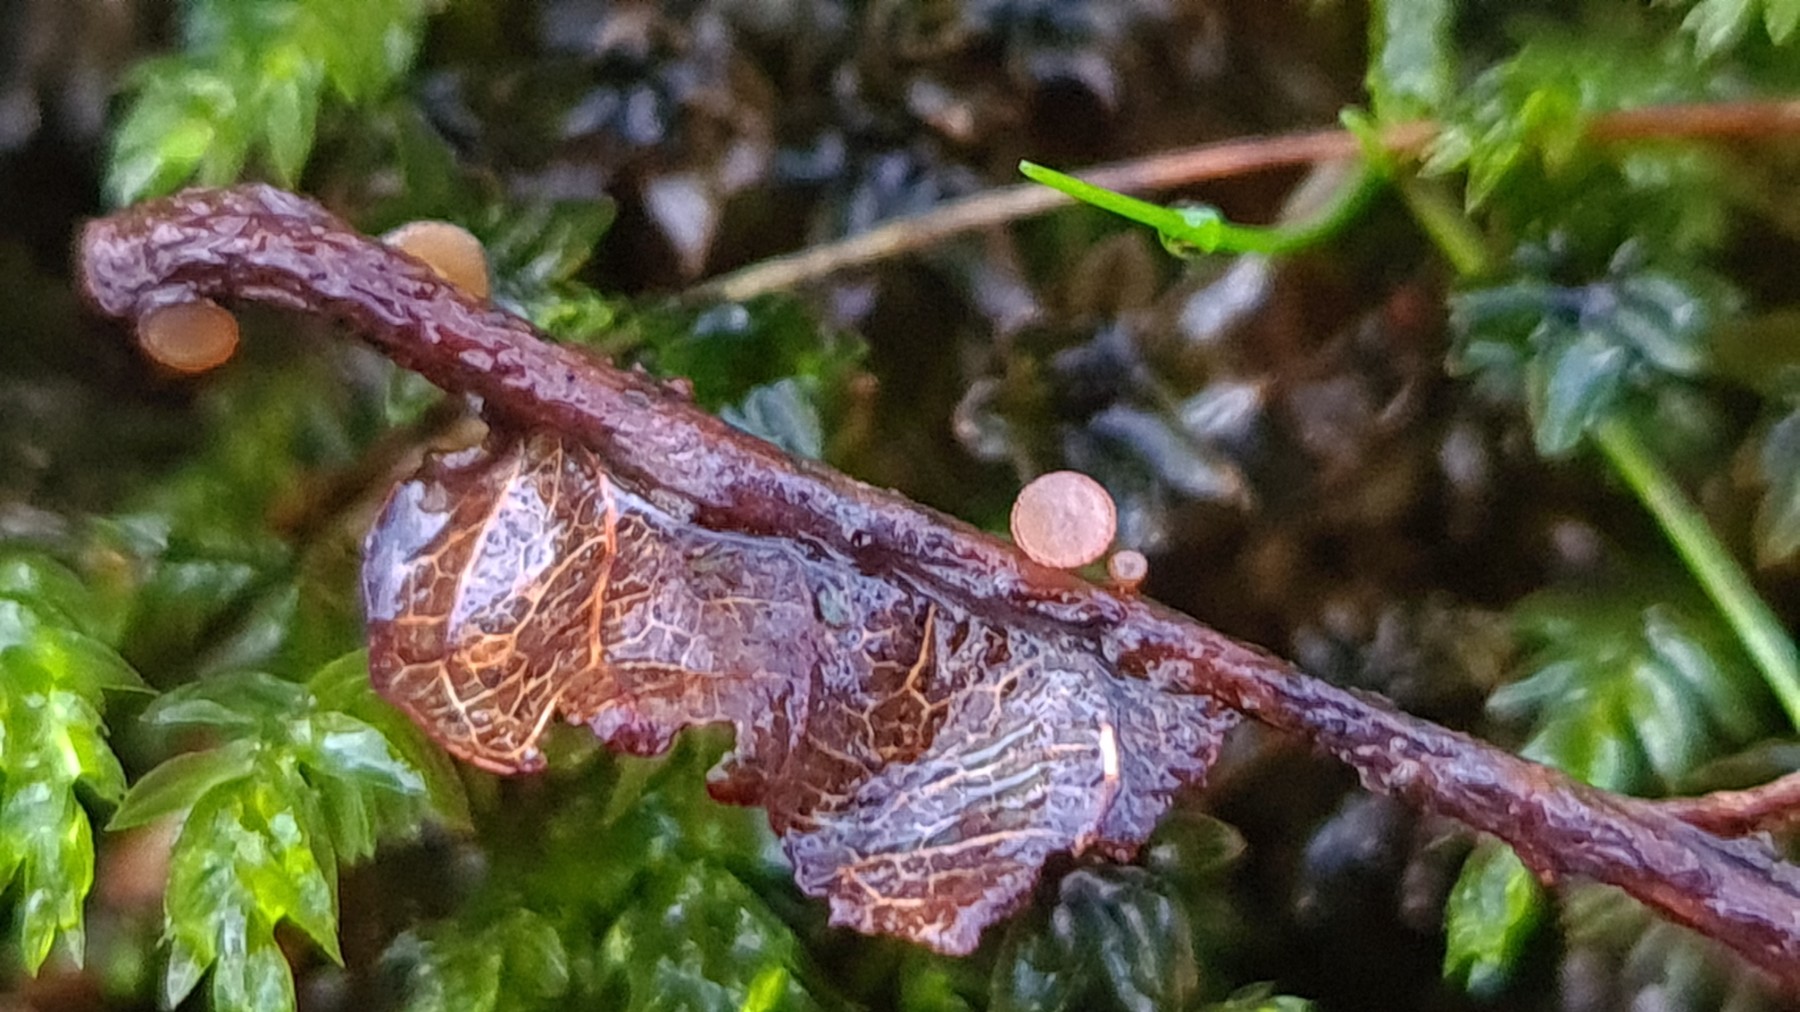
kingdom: Fungi
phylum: Ascomycota
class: Leotiomycetes
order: Helotiales
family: Rutstroemiaceae
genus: Rutstroemia
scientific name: Rutstroemia sydowiana
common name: egeblads-brunskive
